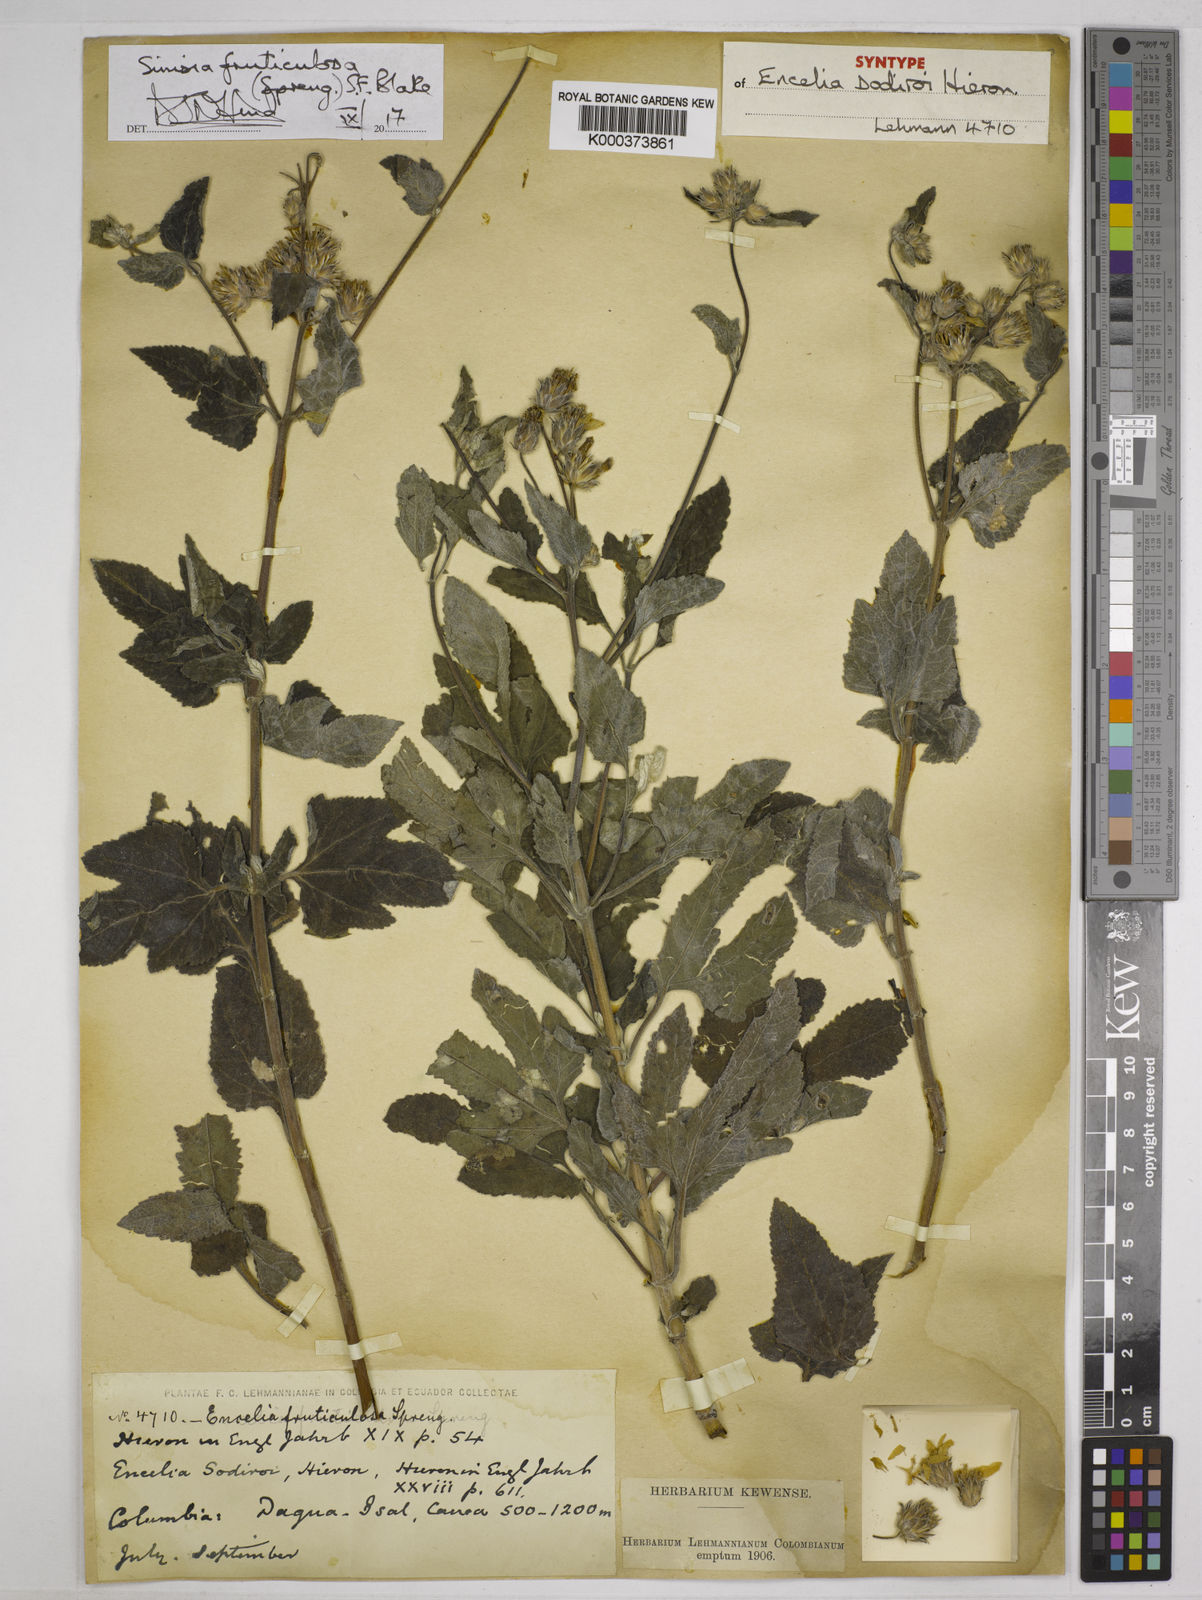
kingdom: Plantae
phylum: Tracheophyta
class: Magnoliopsida
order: Asterales
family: Asteraceae
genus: Simsia
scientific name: Simsia fruticulosa
